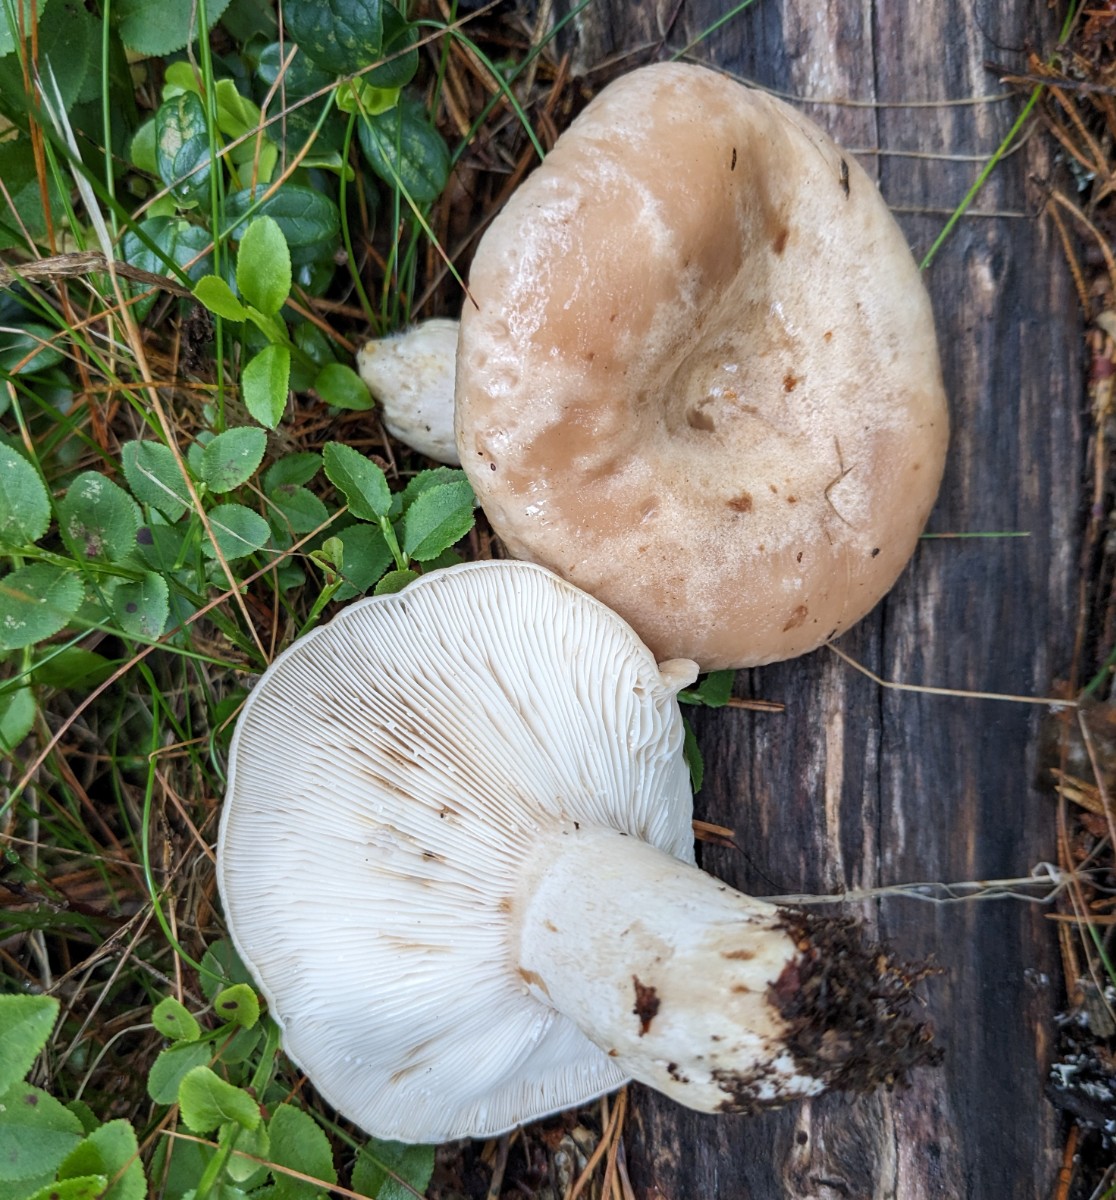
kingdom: Fungi
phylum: Basidiomycota
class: Agaricomycetes
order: Russulales
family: Russulaceae
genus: Lactarius
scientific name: Lactarius musteus
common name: elfenbens-mælkehat
